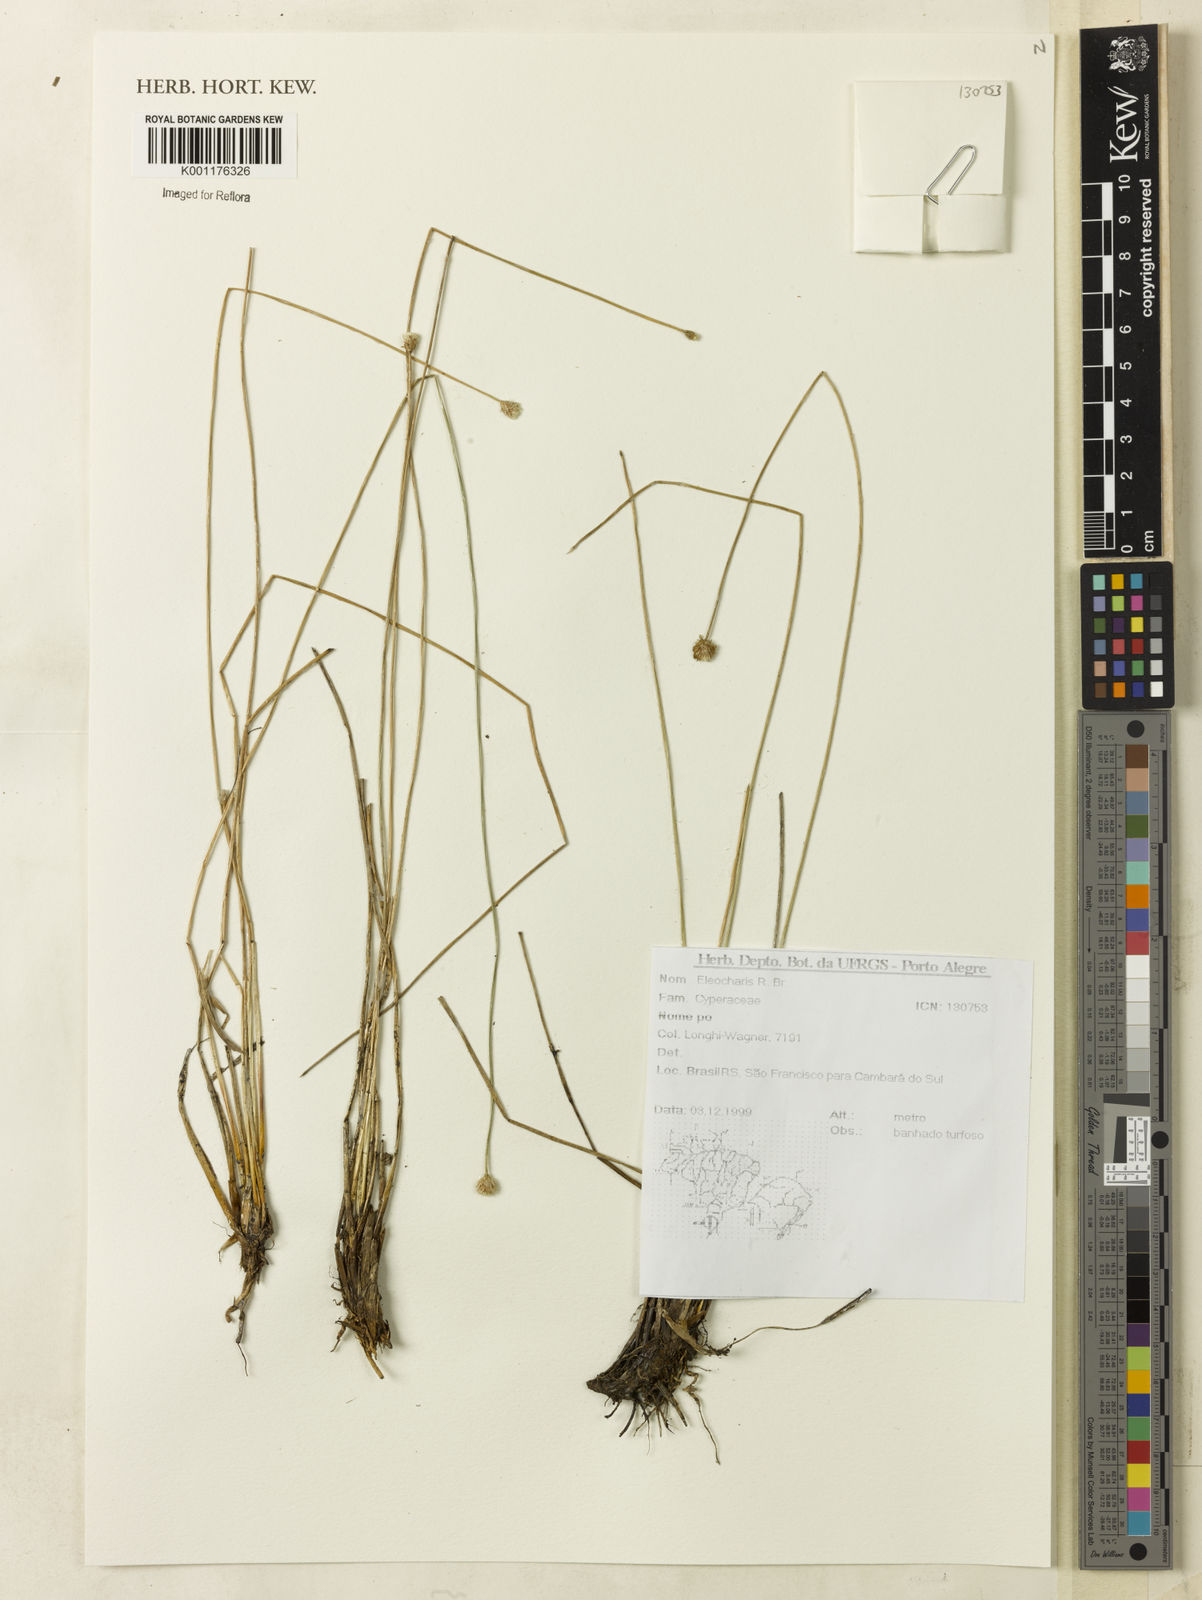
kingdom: Plantae
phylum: Tracheophyta
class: Liliopsida
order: Poales
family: Cyperaceae
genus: Eleocharis
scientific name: Eleocharis
